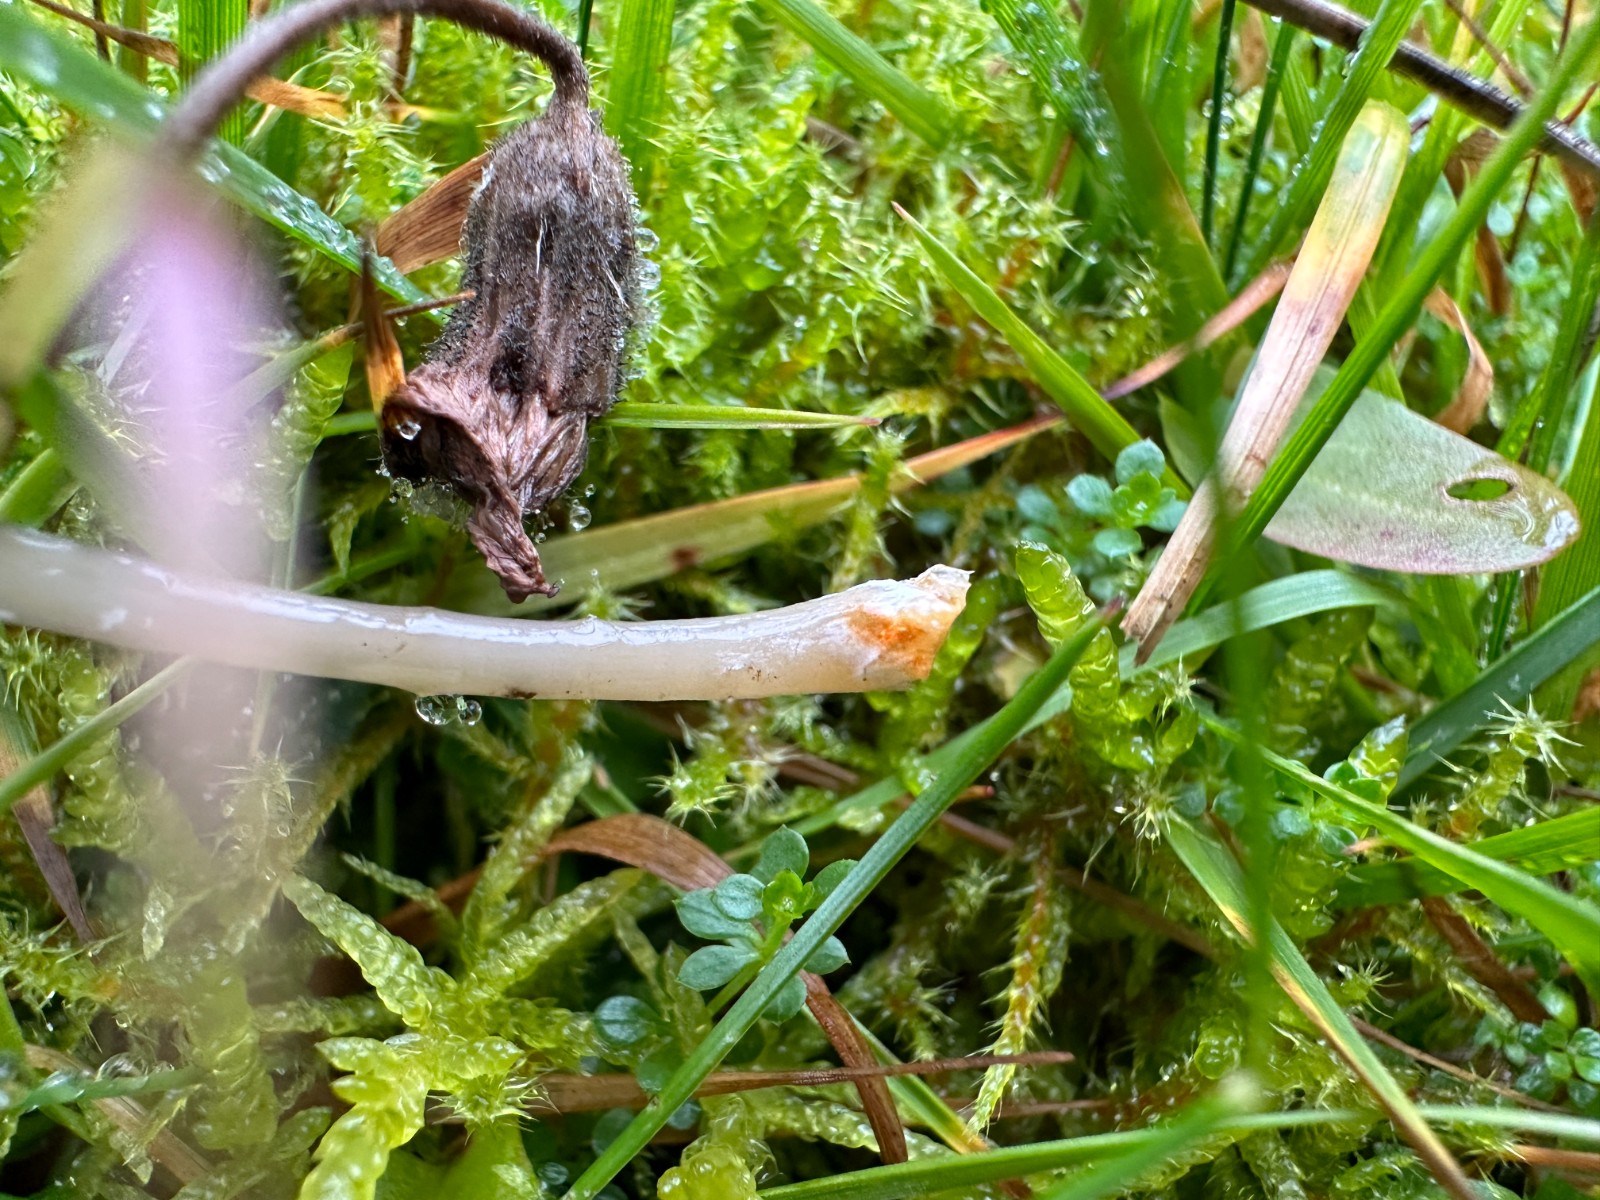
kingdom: Fungi
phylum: Basidiomycota
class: Agaricomycetes
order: Agaricales
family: Entolomataceae
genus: Entoloma
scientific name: Entoloma exile
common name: rødplettet rødblad
